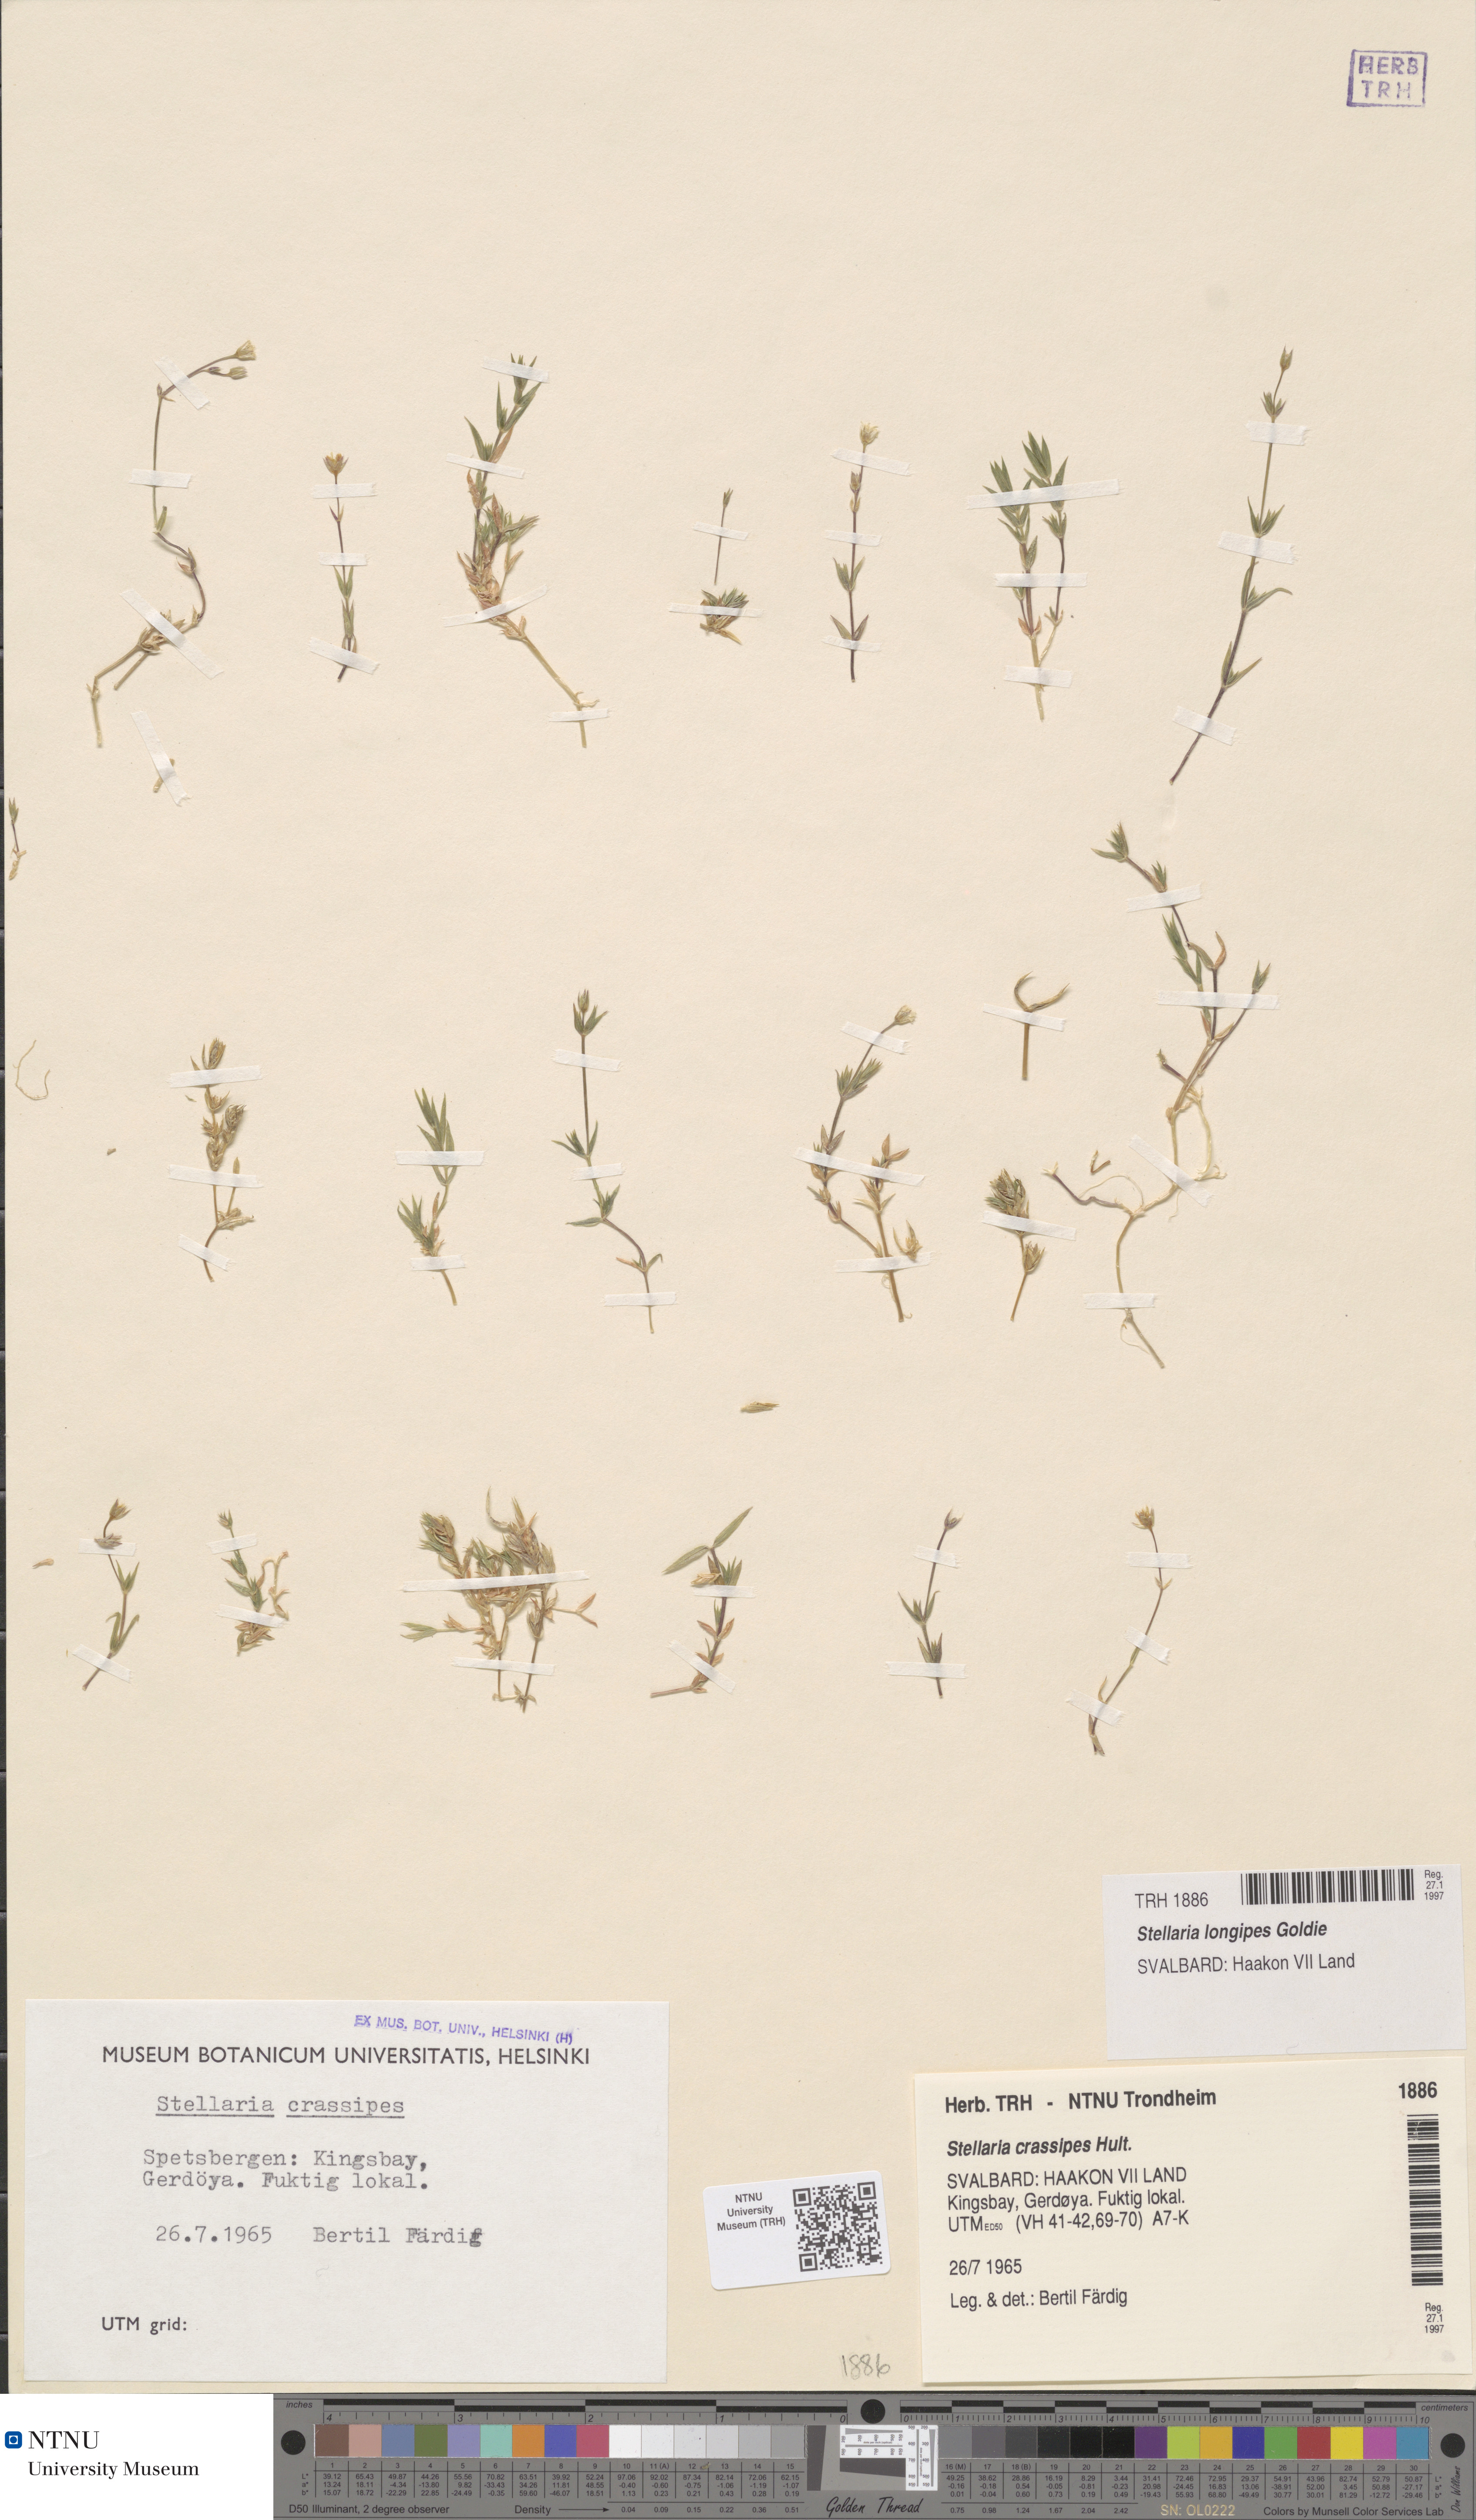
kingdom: Plantae
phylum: Tracheophyta
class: Magnoliopsida
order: Caryophyllales
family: Caryophyllaceae
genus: Stellaria
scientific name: Stellaria longipes
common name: Goldie's starwort
